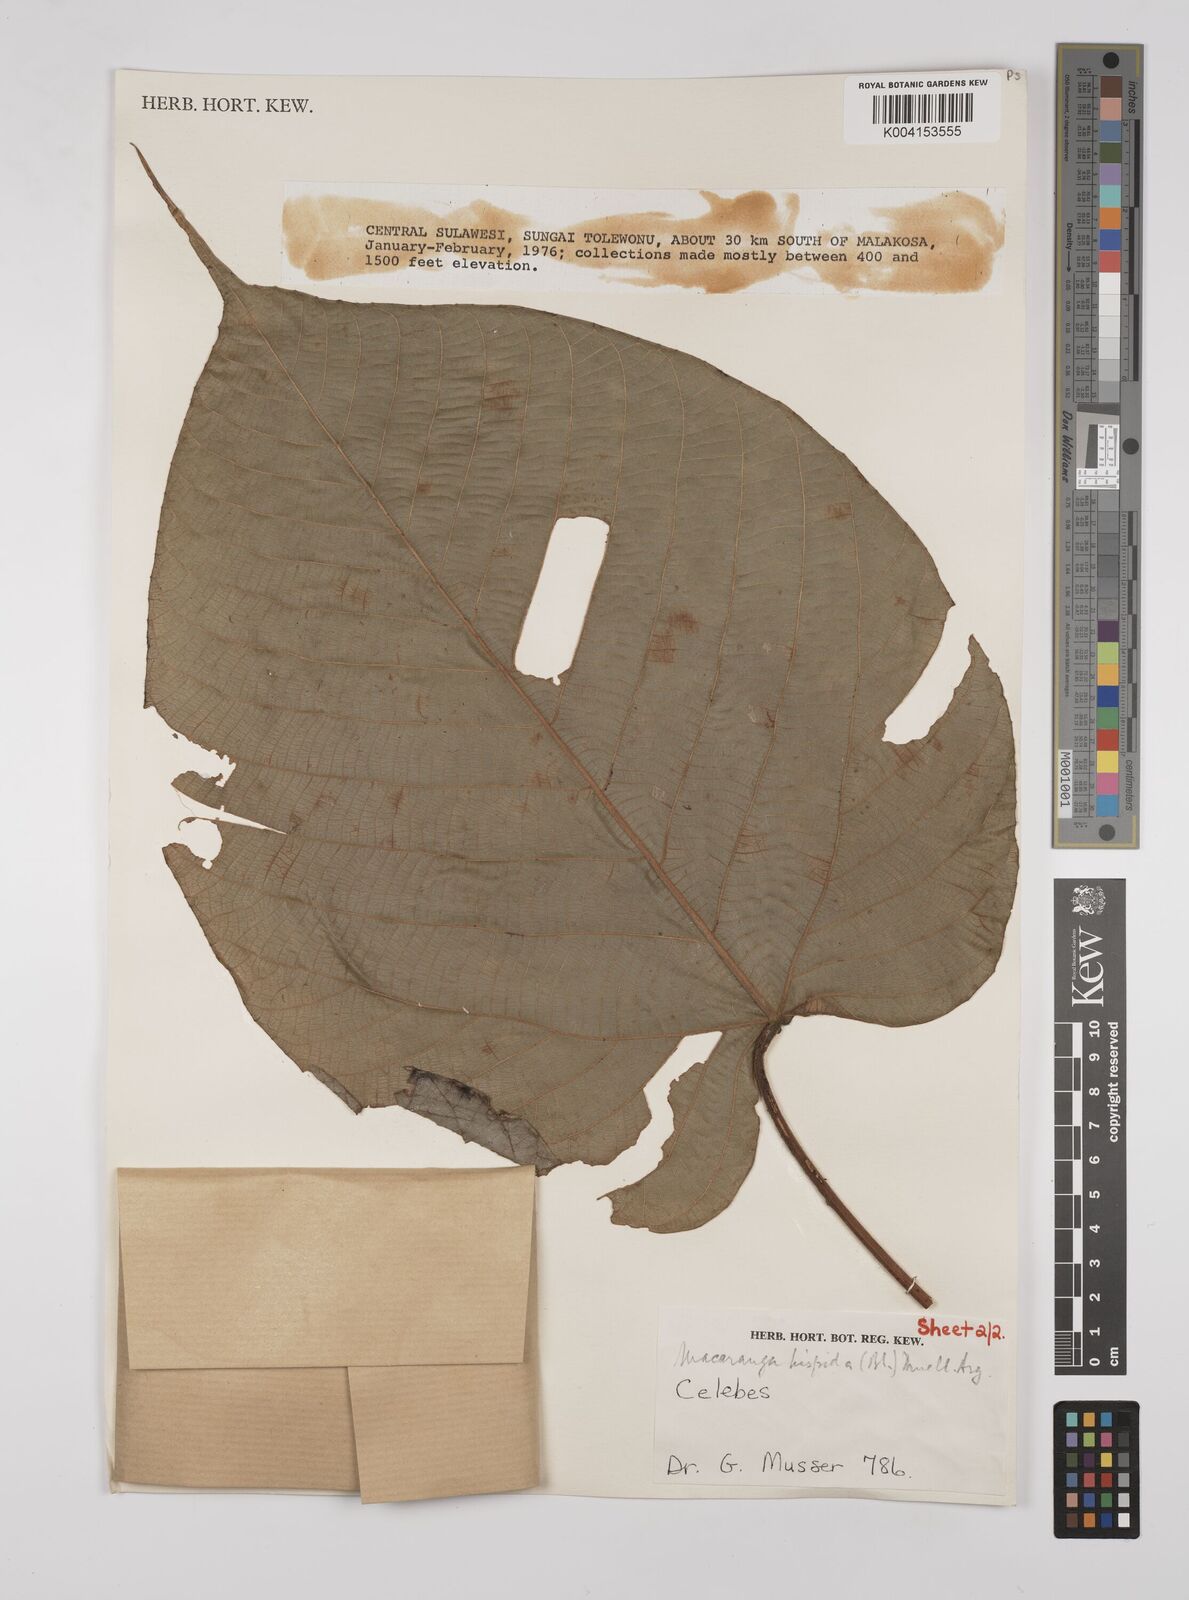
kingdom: Plantae
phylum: Tracheophyta
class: Magnoliopsida
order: Malpighiales
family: Euphorbiaceae
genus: Macaranga
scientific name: Macaranga hispida
